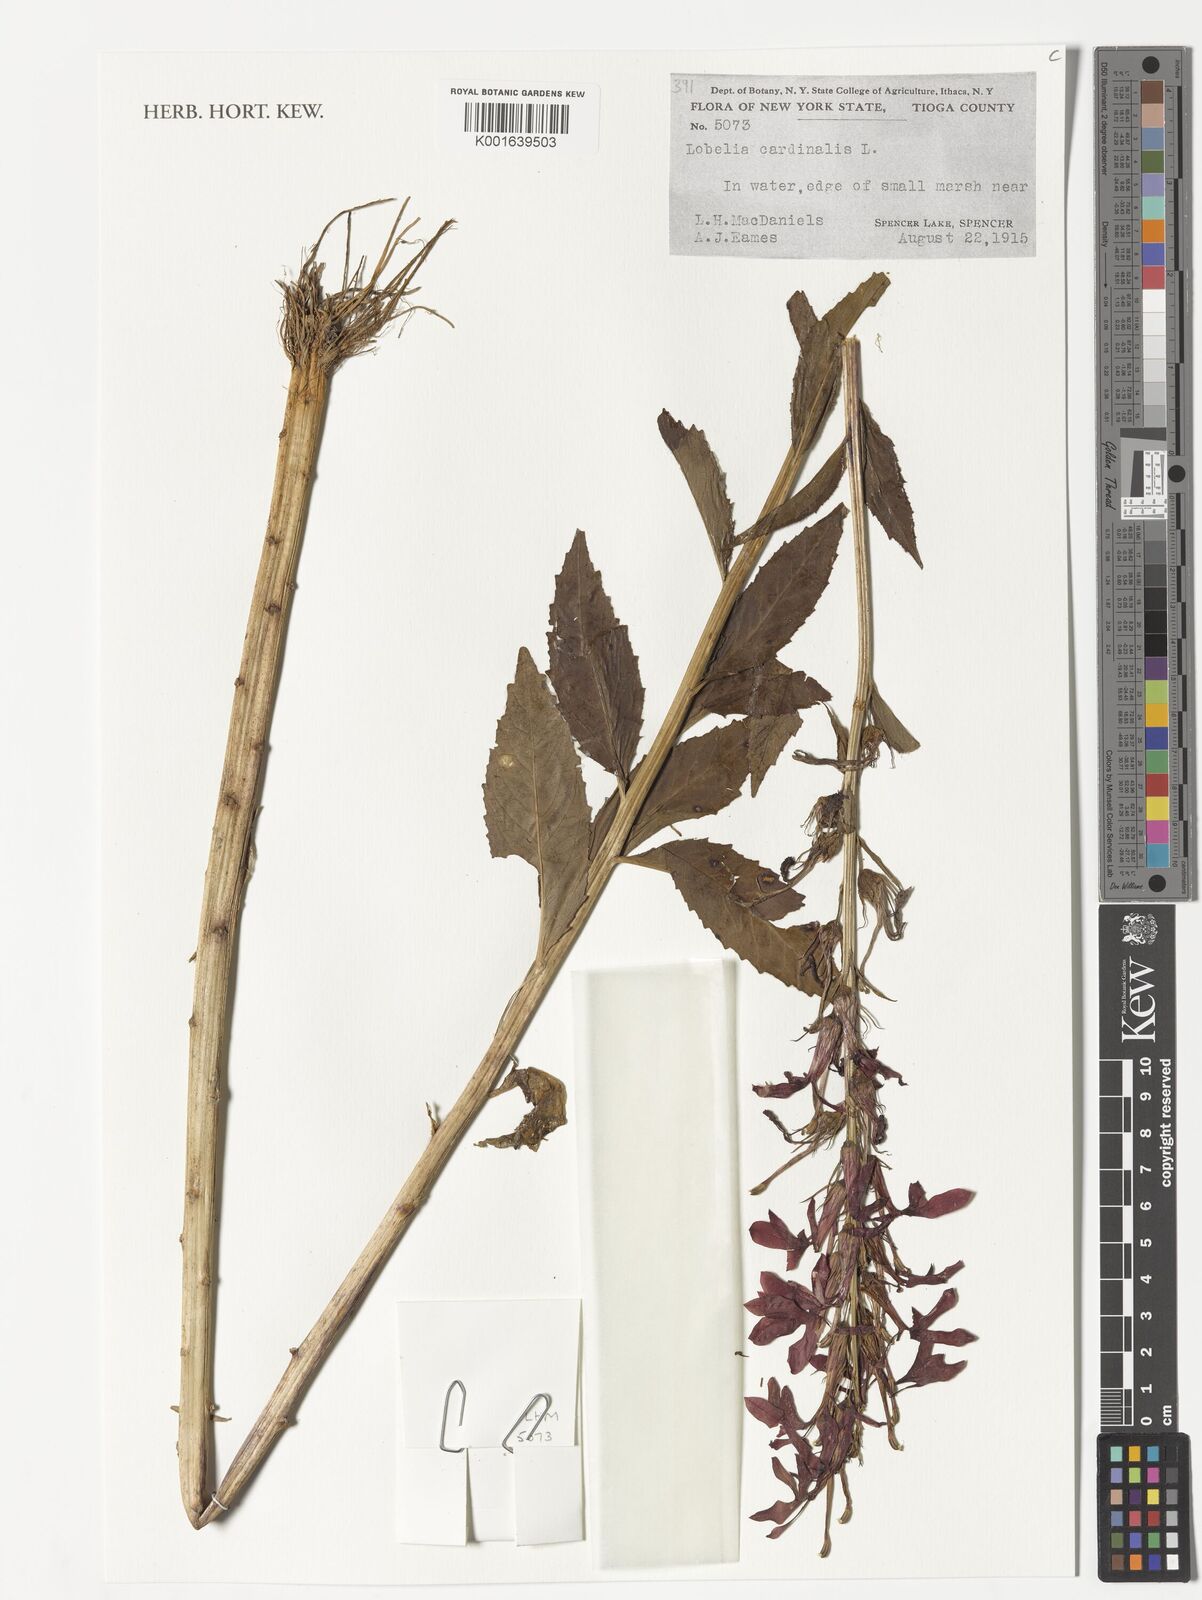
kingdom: Plantae
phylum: Tracheophyta
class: Magnoliopsida
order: Asterales
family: Campanulaceae
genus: Lobelia
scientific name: Lobelia cardinalis
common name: Cardinal flower
